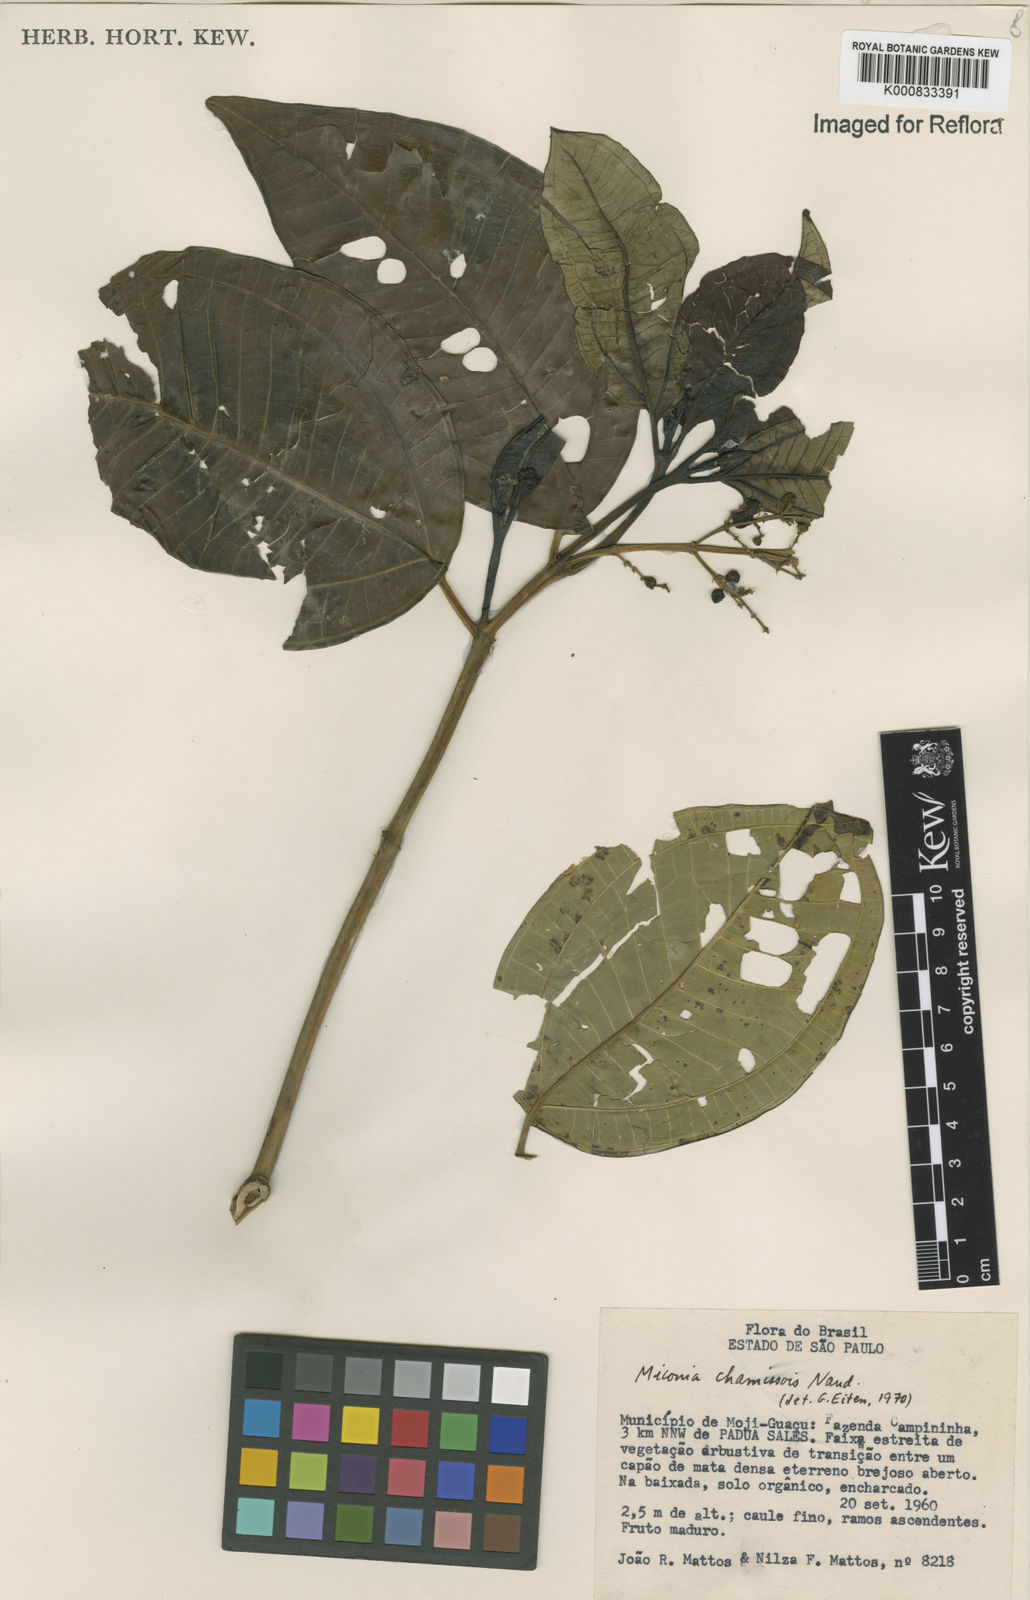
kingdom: Plantae
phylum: Tracheophyta
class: Magnoliopsida
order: Myrtales
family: Melastomataceae
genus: Miconia
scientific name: Miconia chamissois
